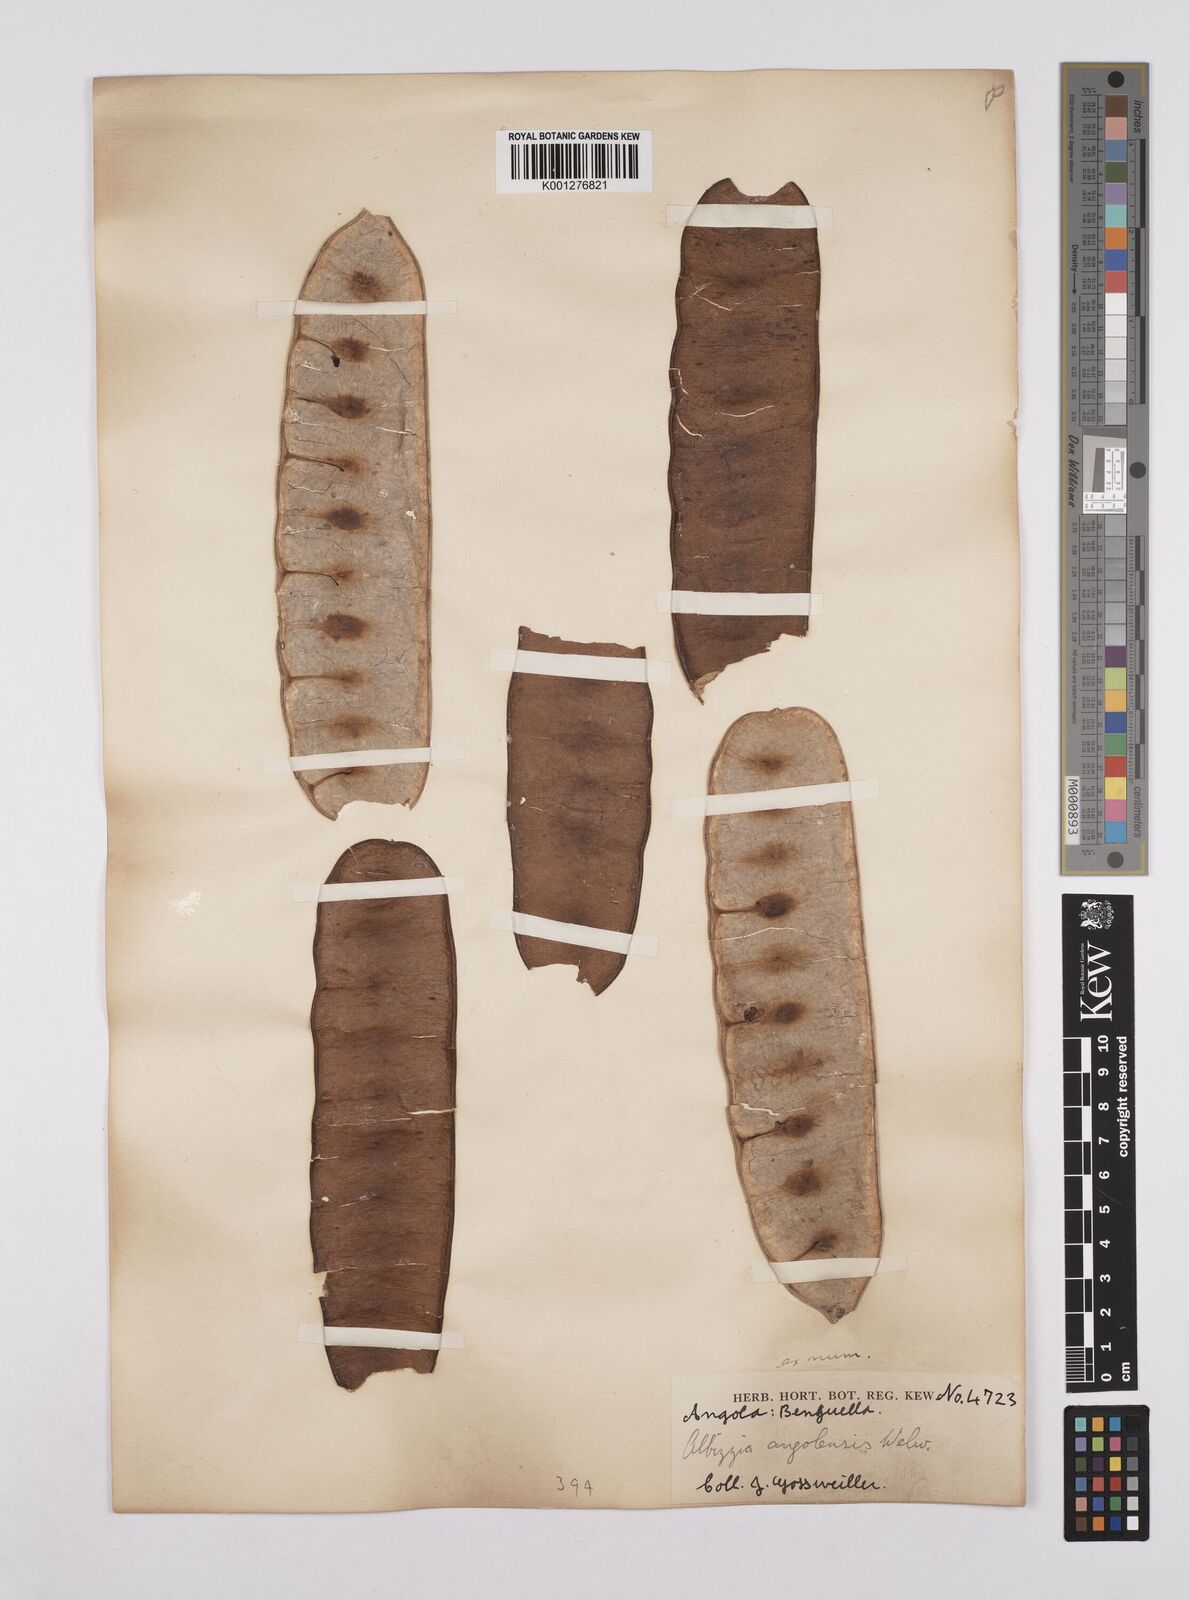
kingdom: Plantae
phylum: Tracheophyta
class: Magnoliopsida
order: Fabales
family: Fabaceae
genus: Albizia
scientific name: Albizia ferruginea
